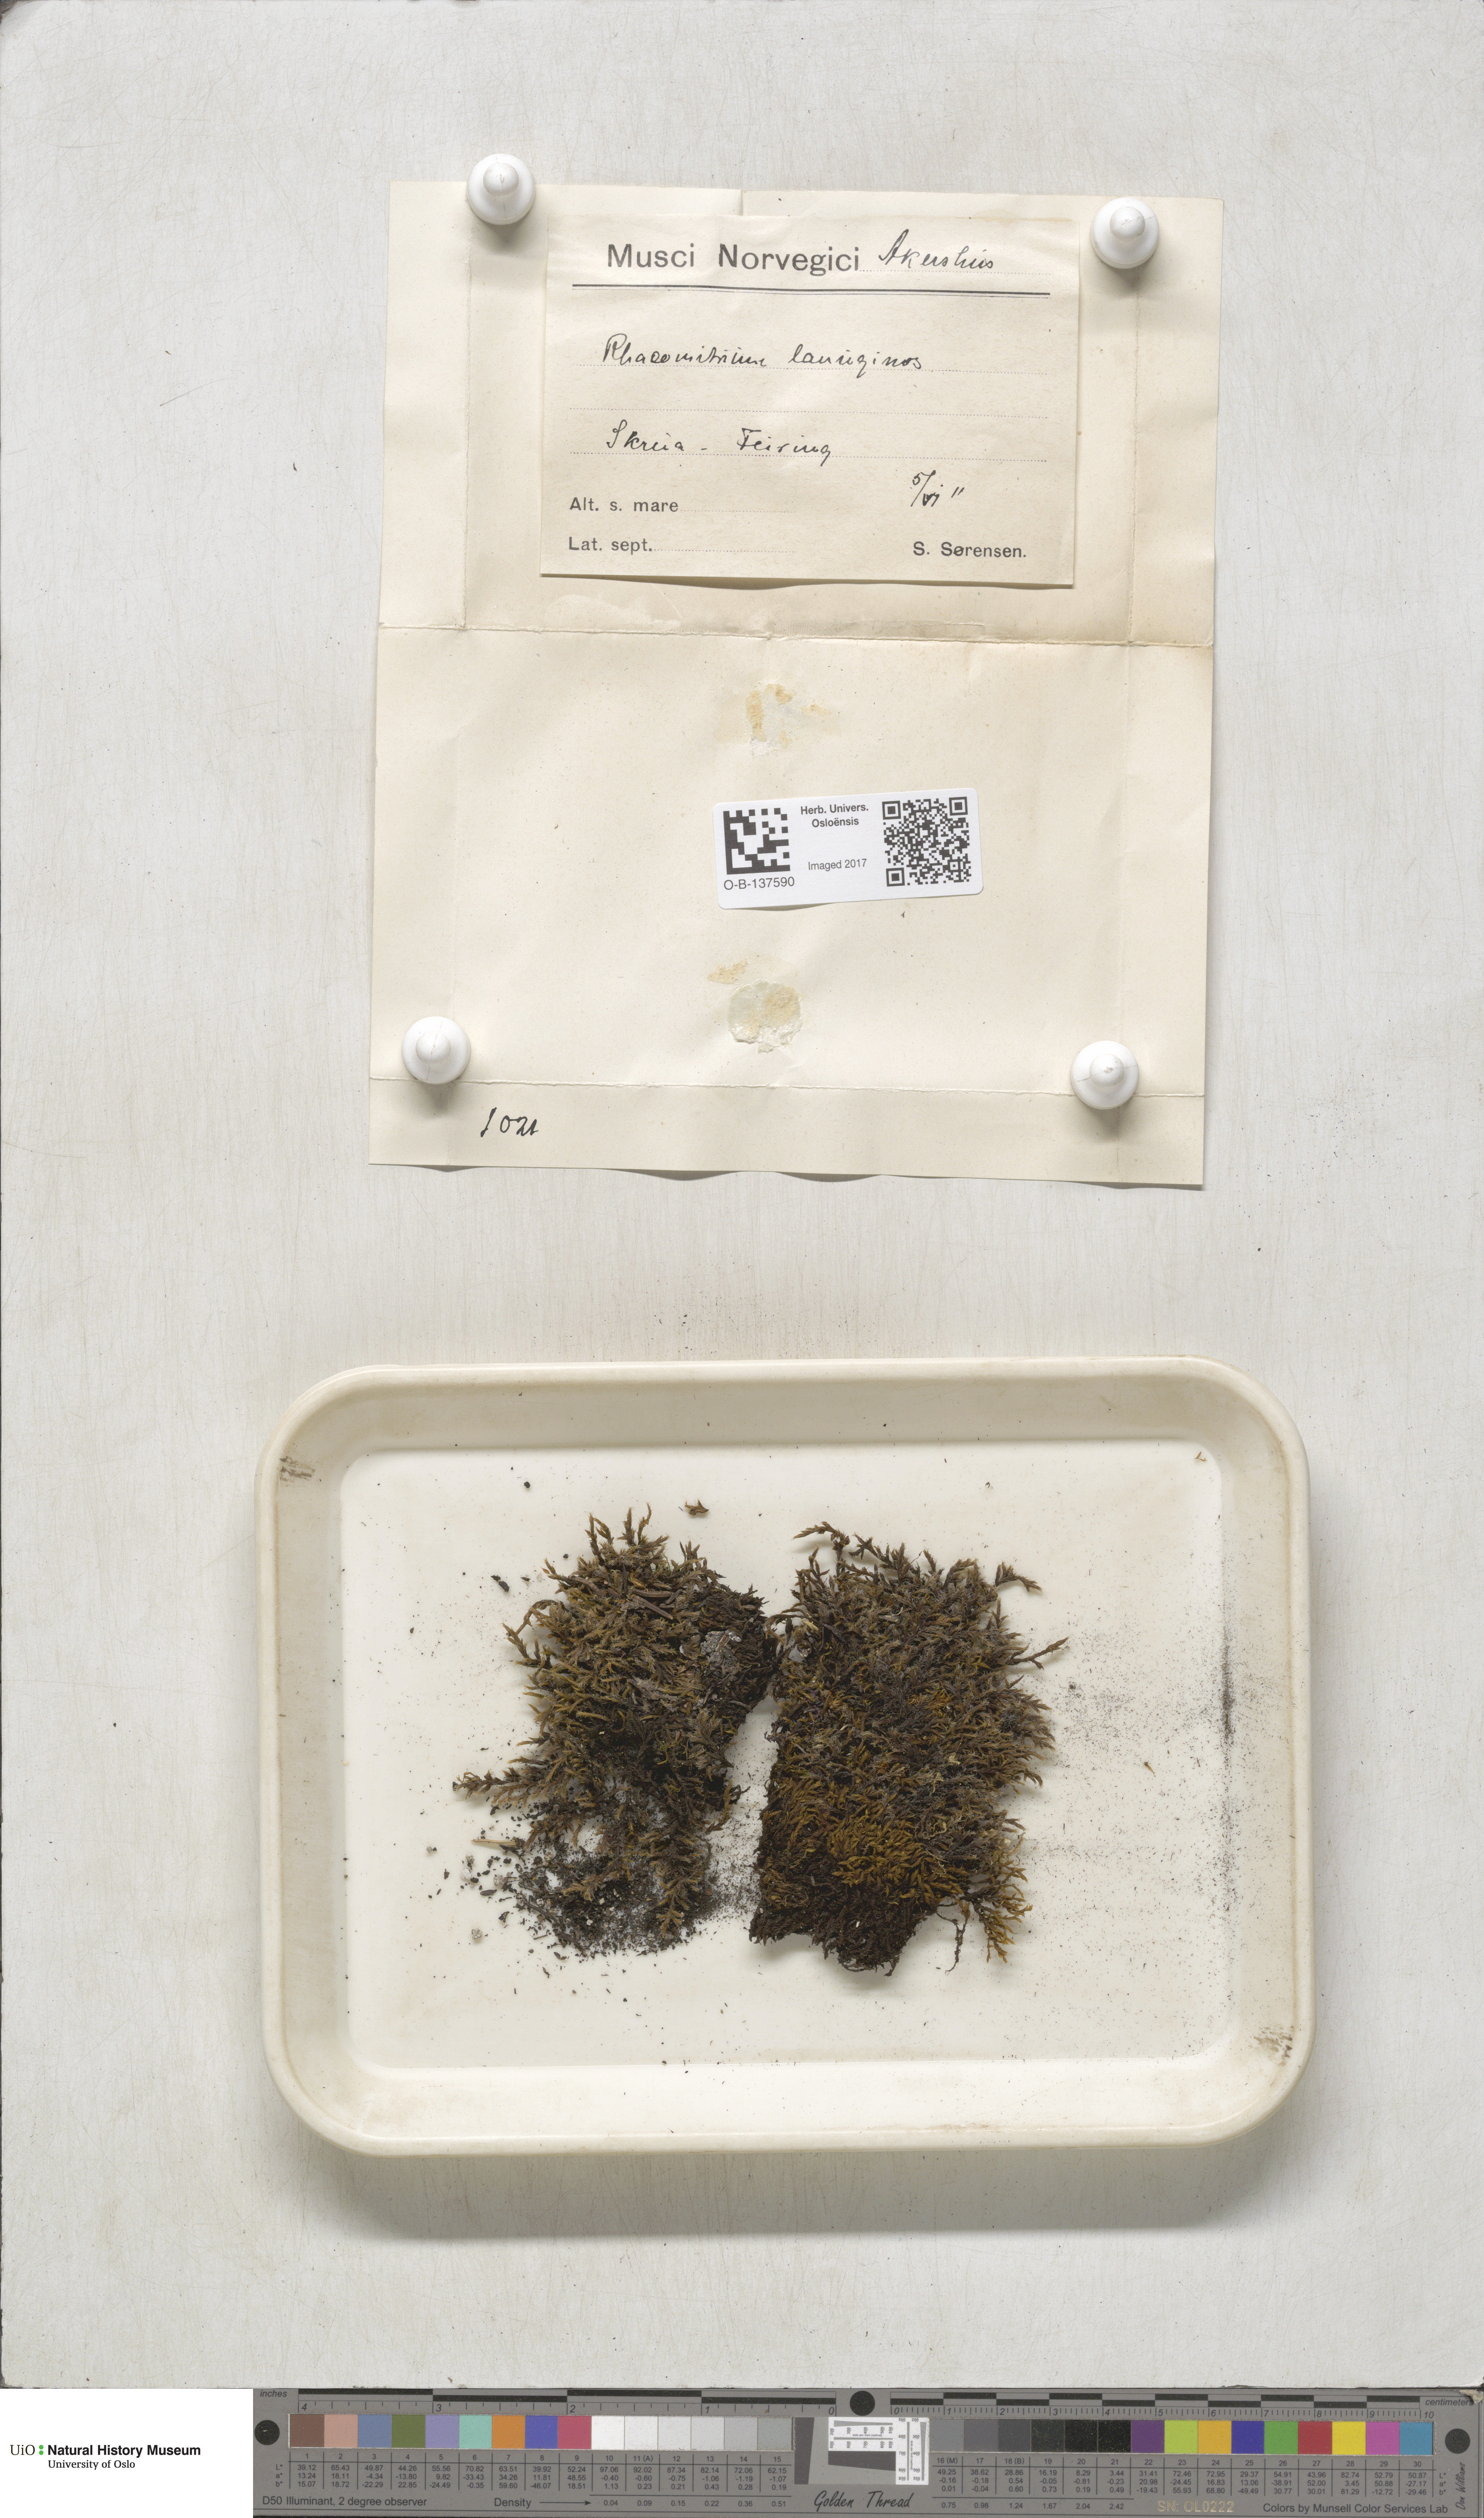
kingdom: Plantae
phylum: Bryophyta
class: Bryopsida
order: Grimmiales
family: Grimmiaceae
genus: Racomitrium
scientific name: Racomitrium lanuginosum
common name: Hoary rock moss
